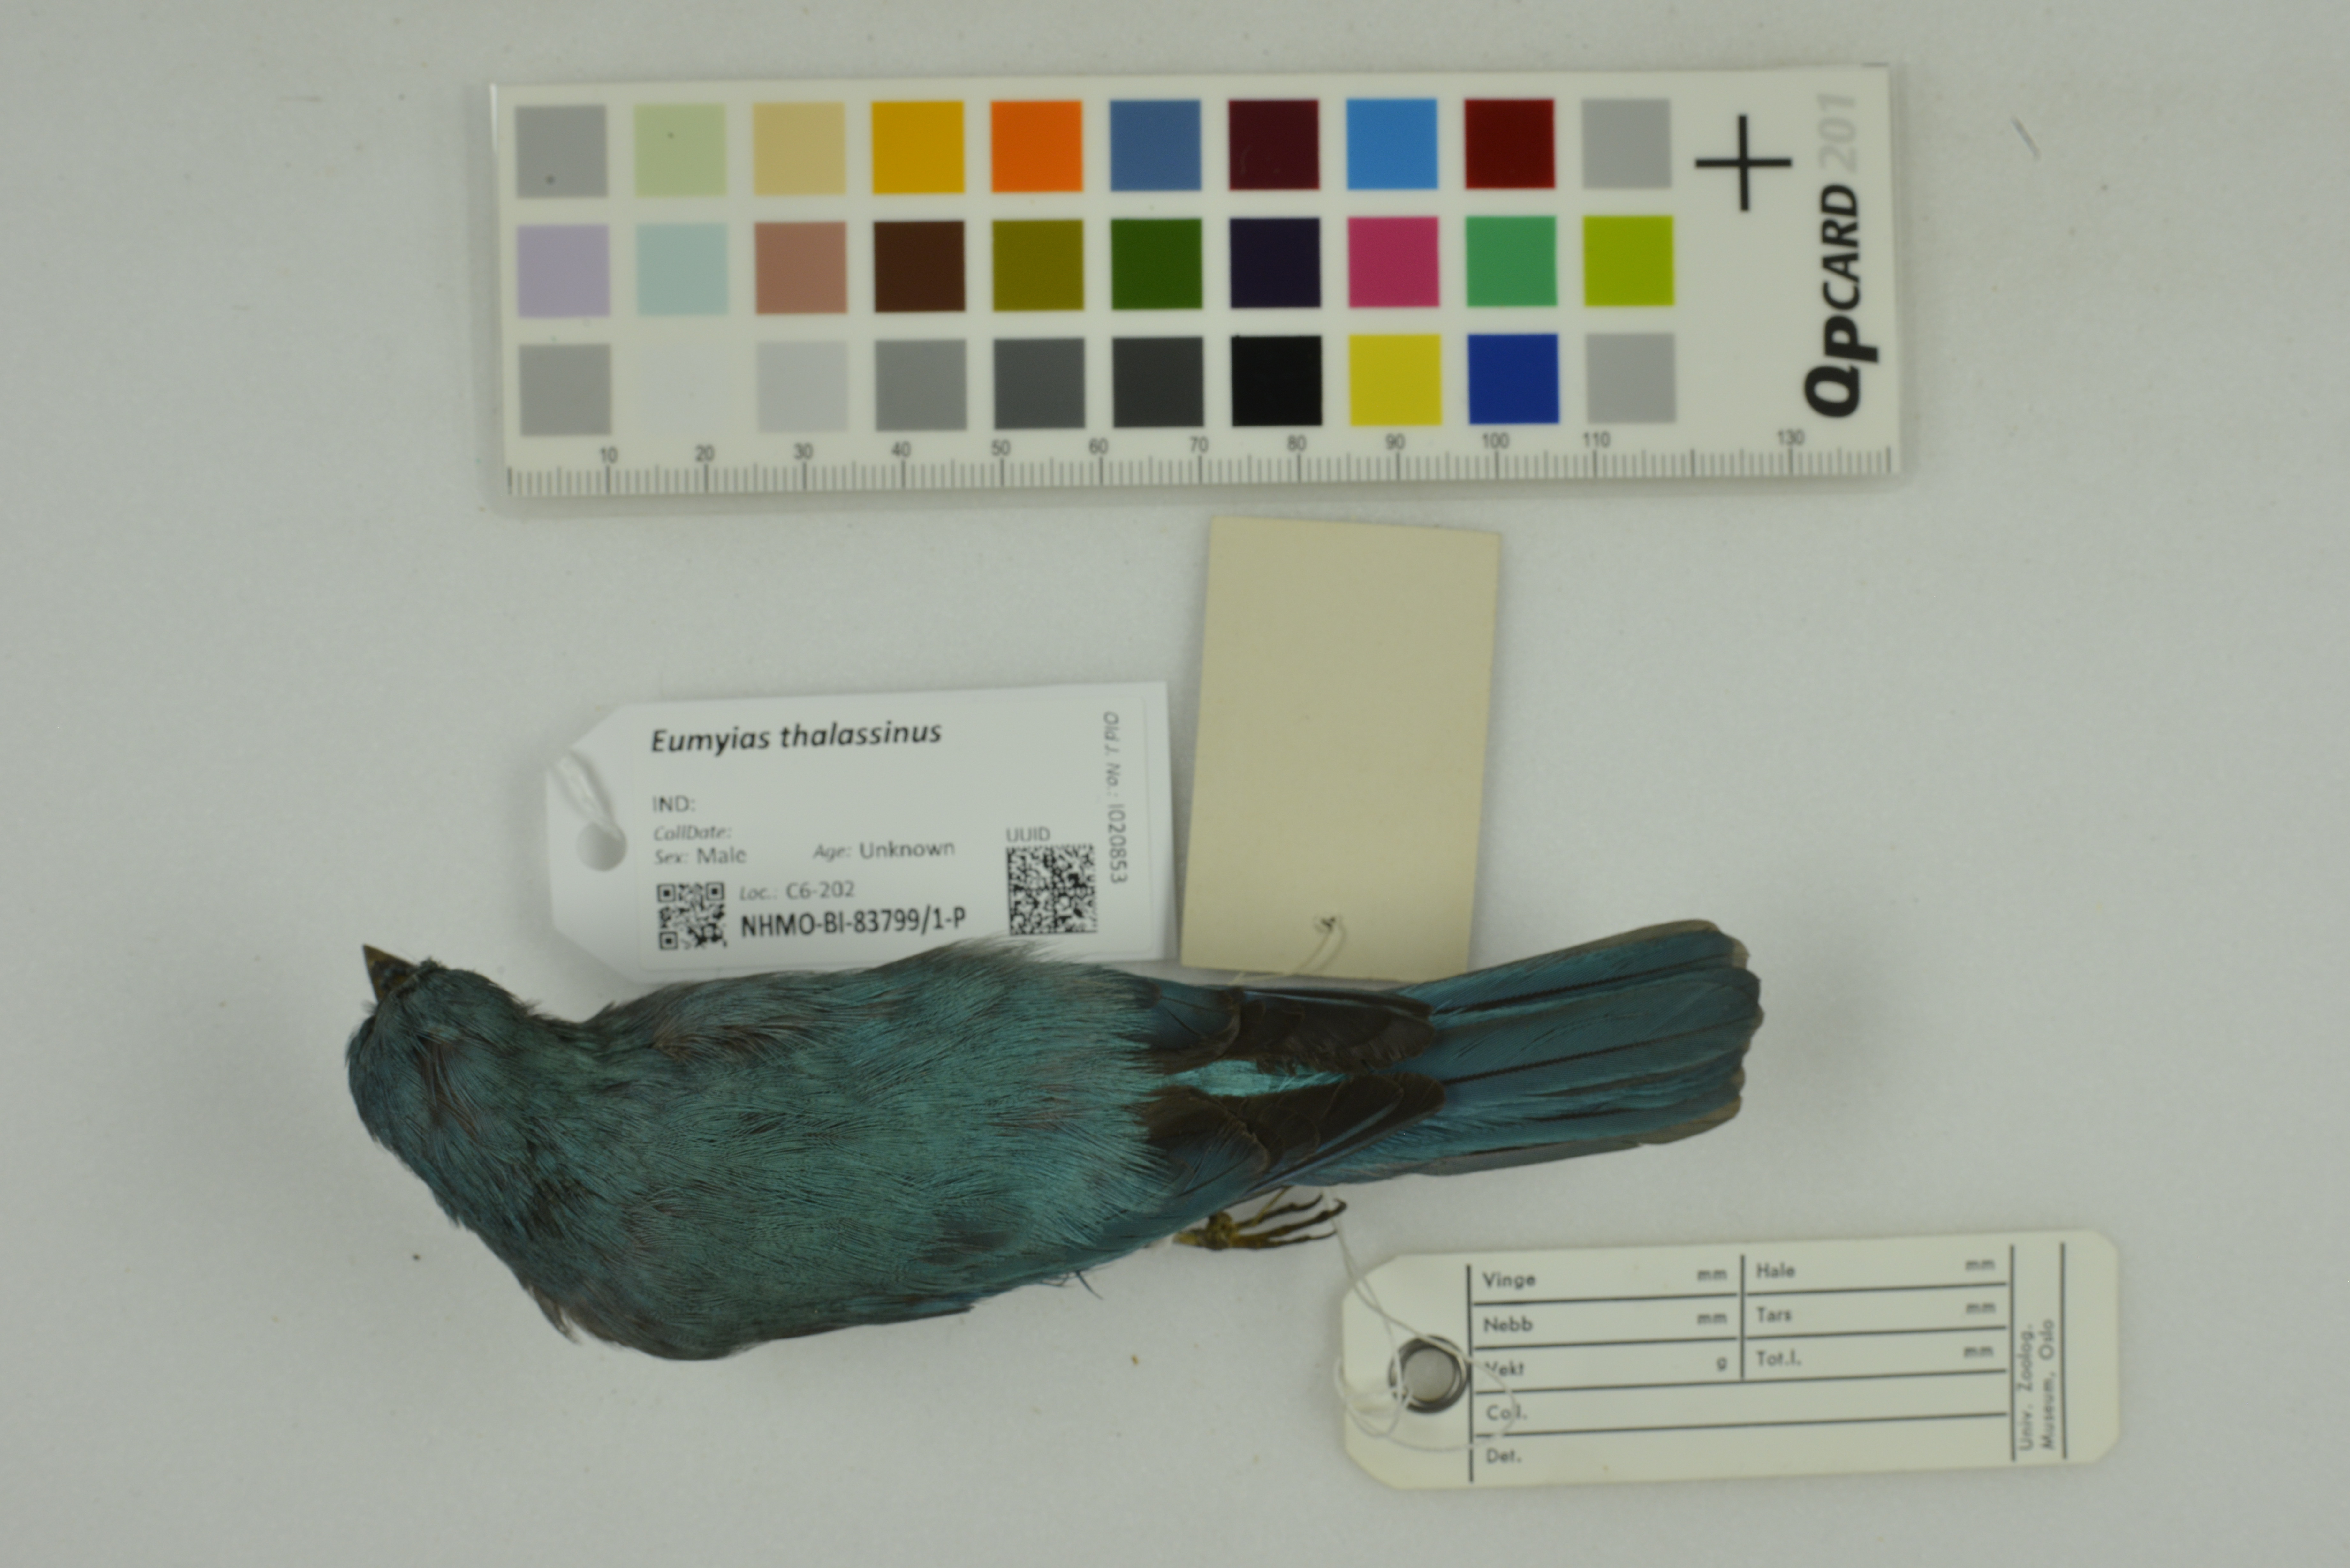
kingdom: Animalia
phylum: Chordata
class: Aves
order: Passeriformes
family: Muscicapidae
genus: Eumyias
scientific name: Eumyias thalassinus
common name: Verditer flycatcher
